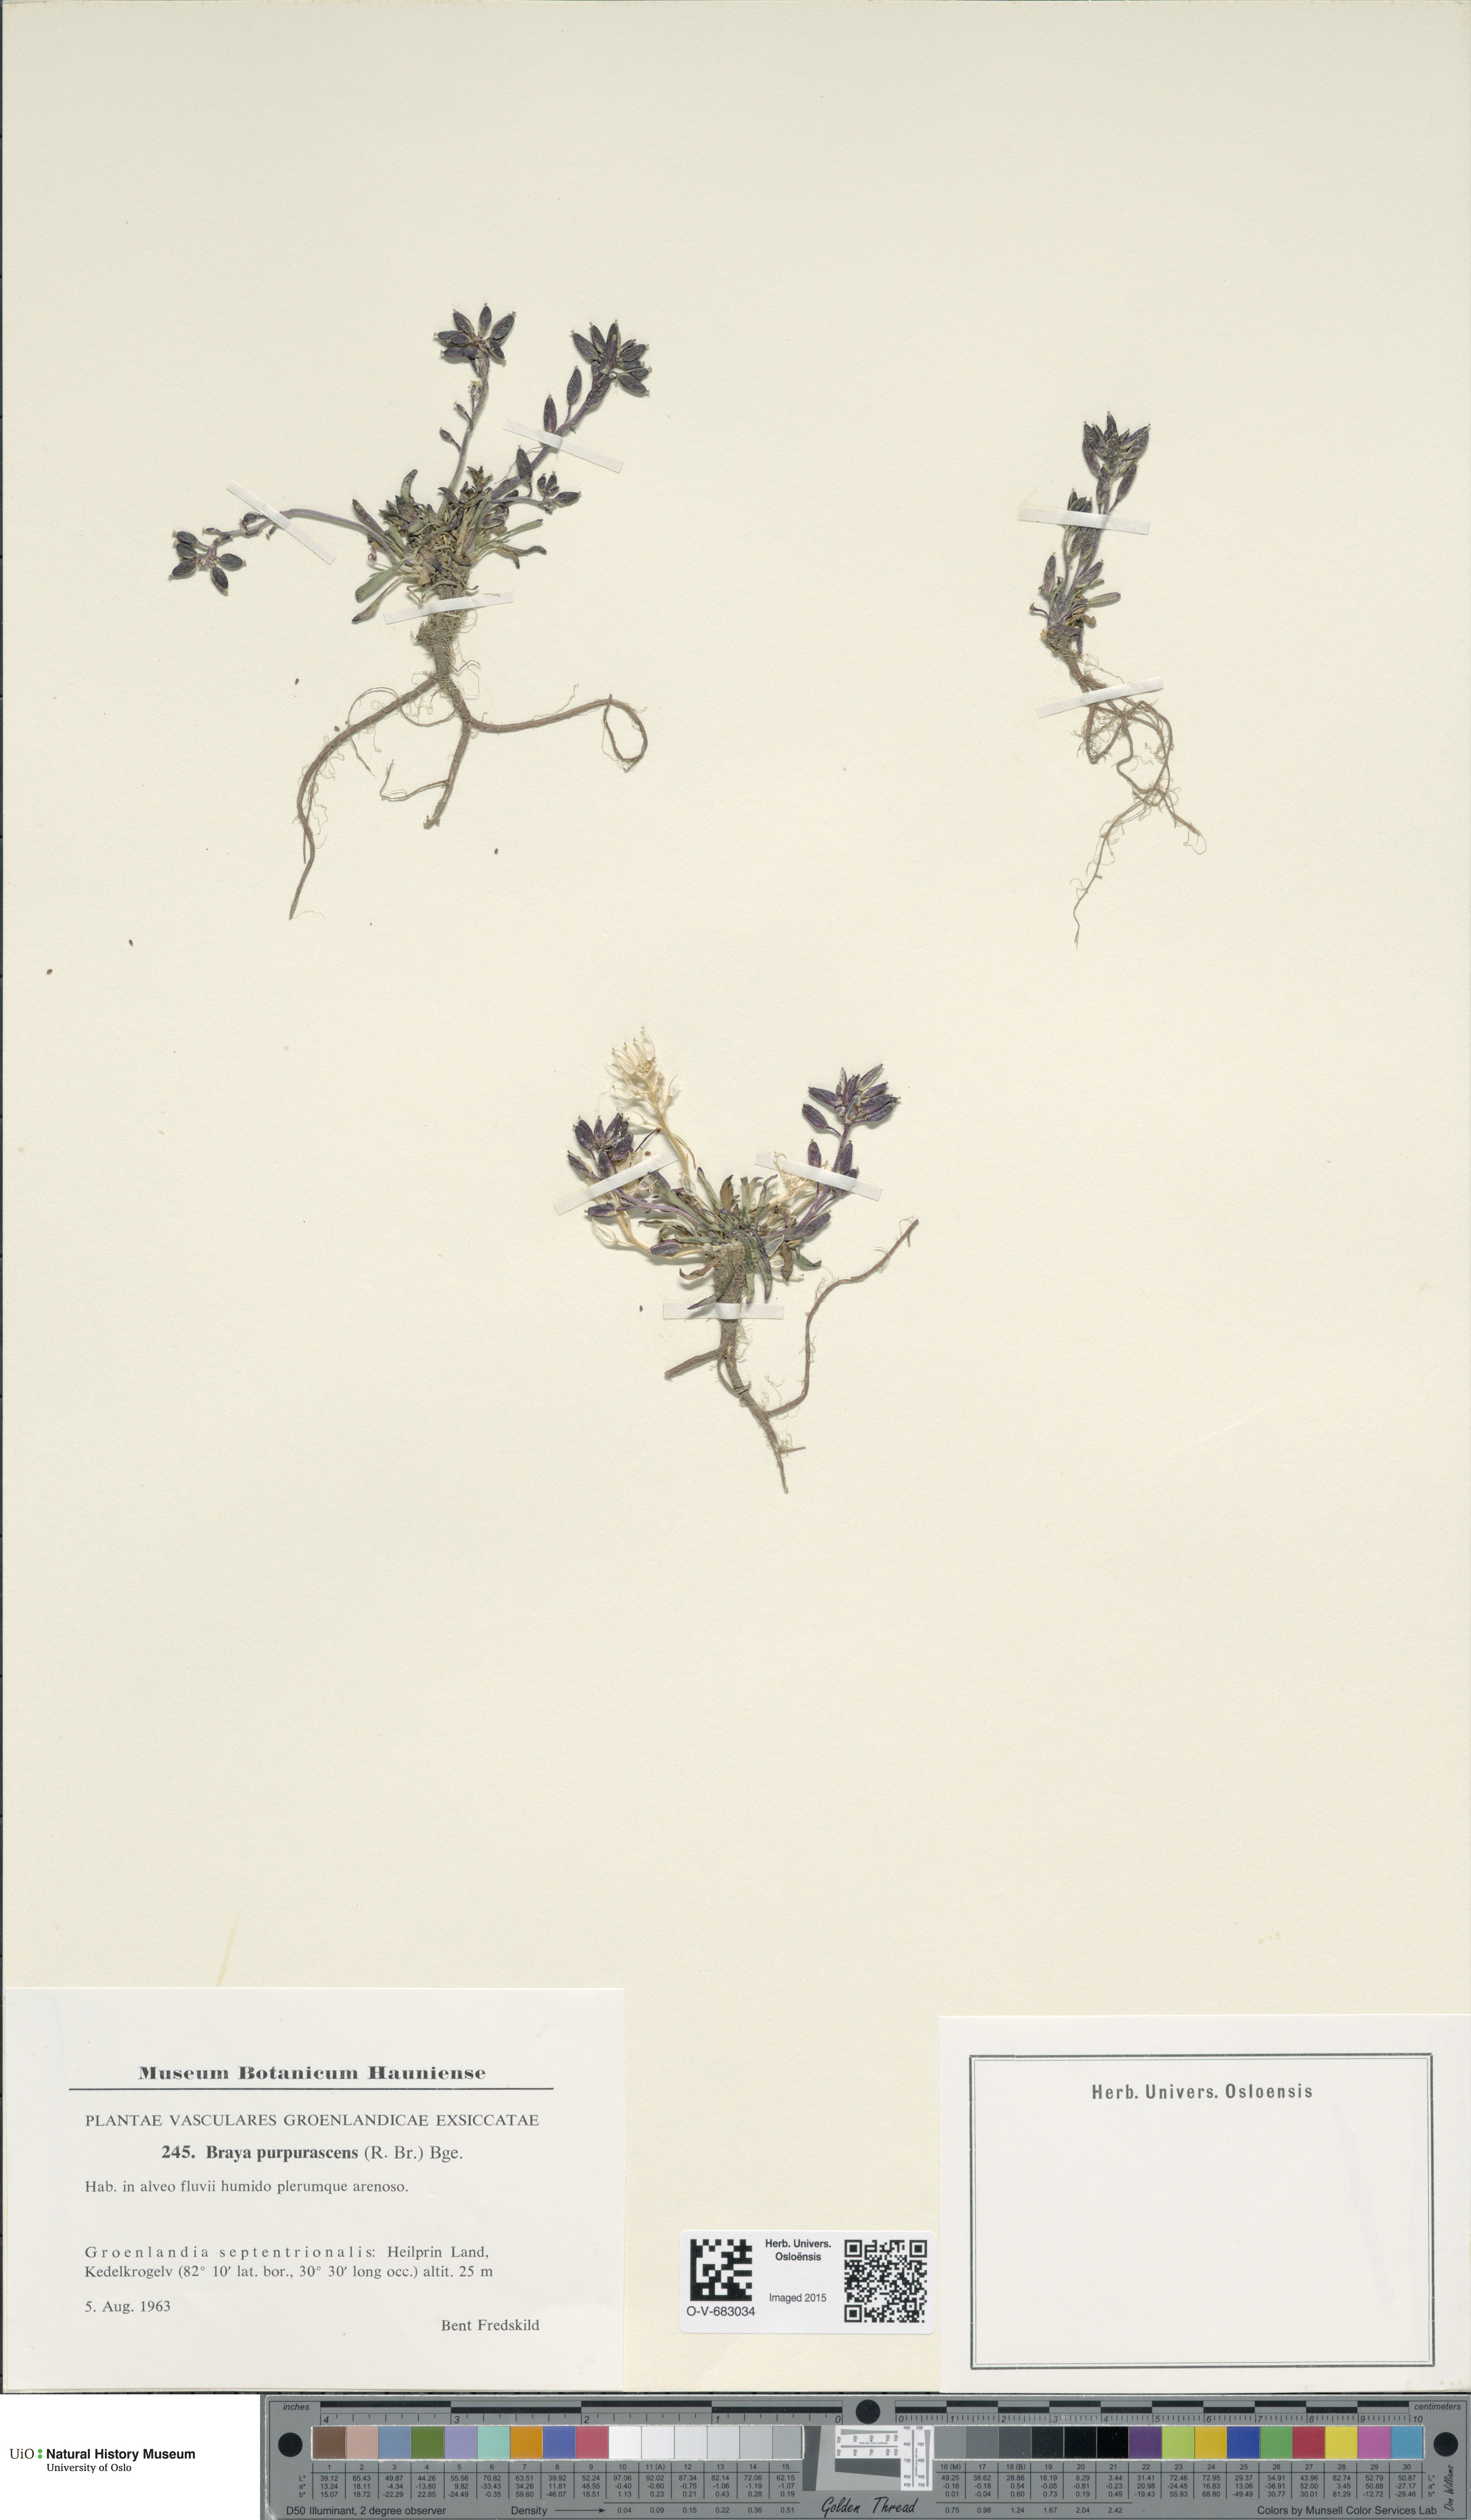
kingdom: Plantae
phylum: Tracheophyta
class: Magnoliopsida
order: Brassicales
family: Brassicaceae
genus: Braya
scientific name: Braya purpurascens
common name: Alpine braya
